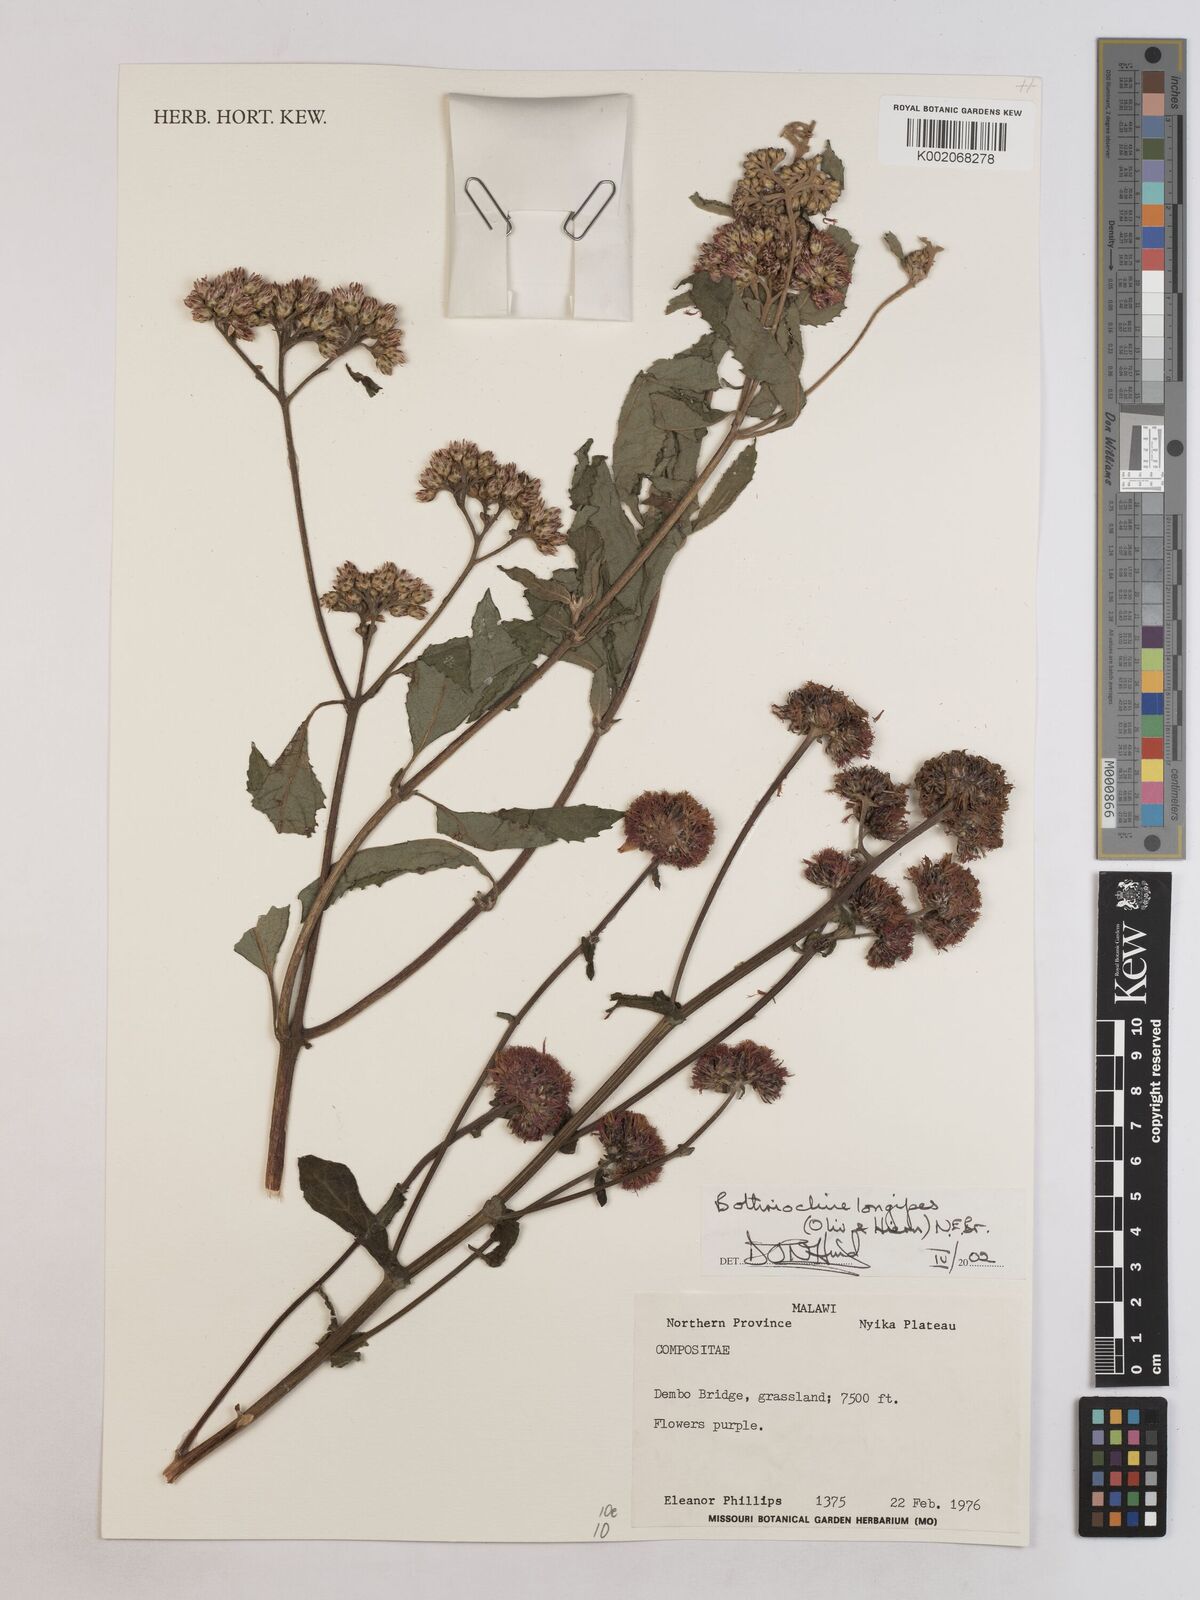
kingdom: Plantae
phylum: Tracheophyta
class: Magnoliopsida
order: Asterales
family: Asteraceae
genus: Bothriocline
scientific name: Bothriocline longipes
